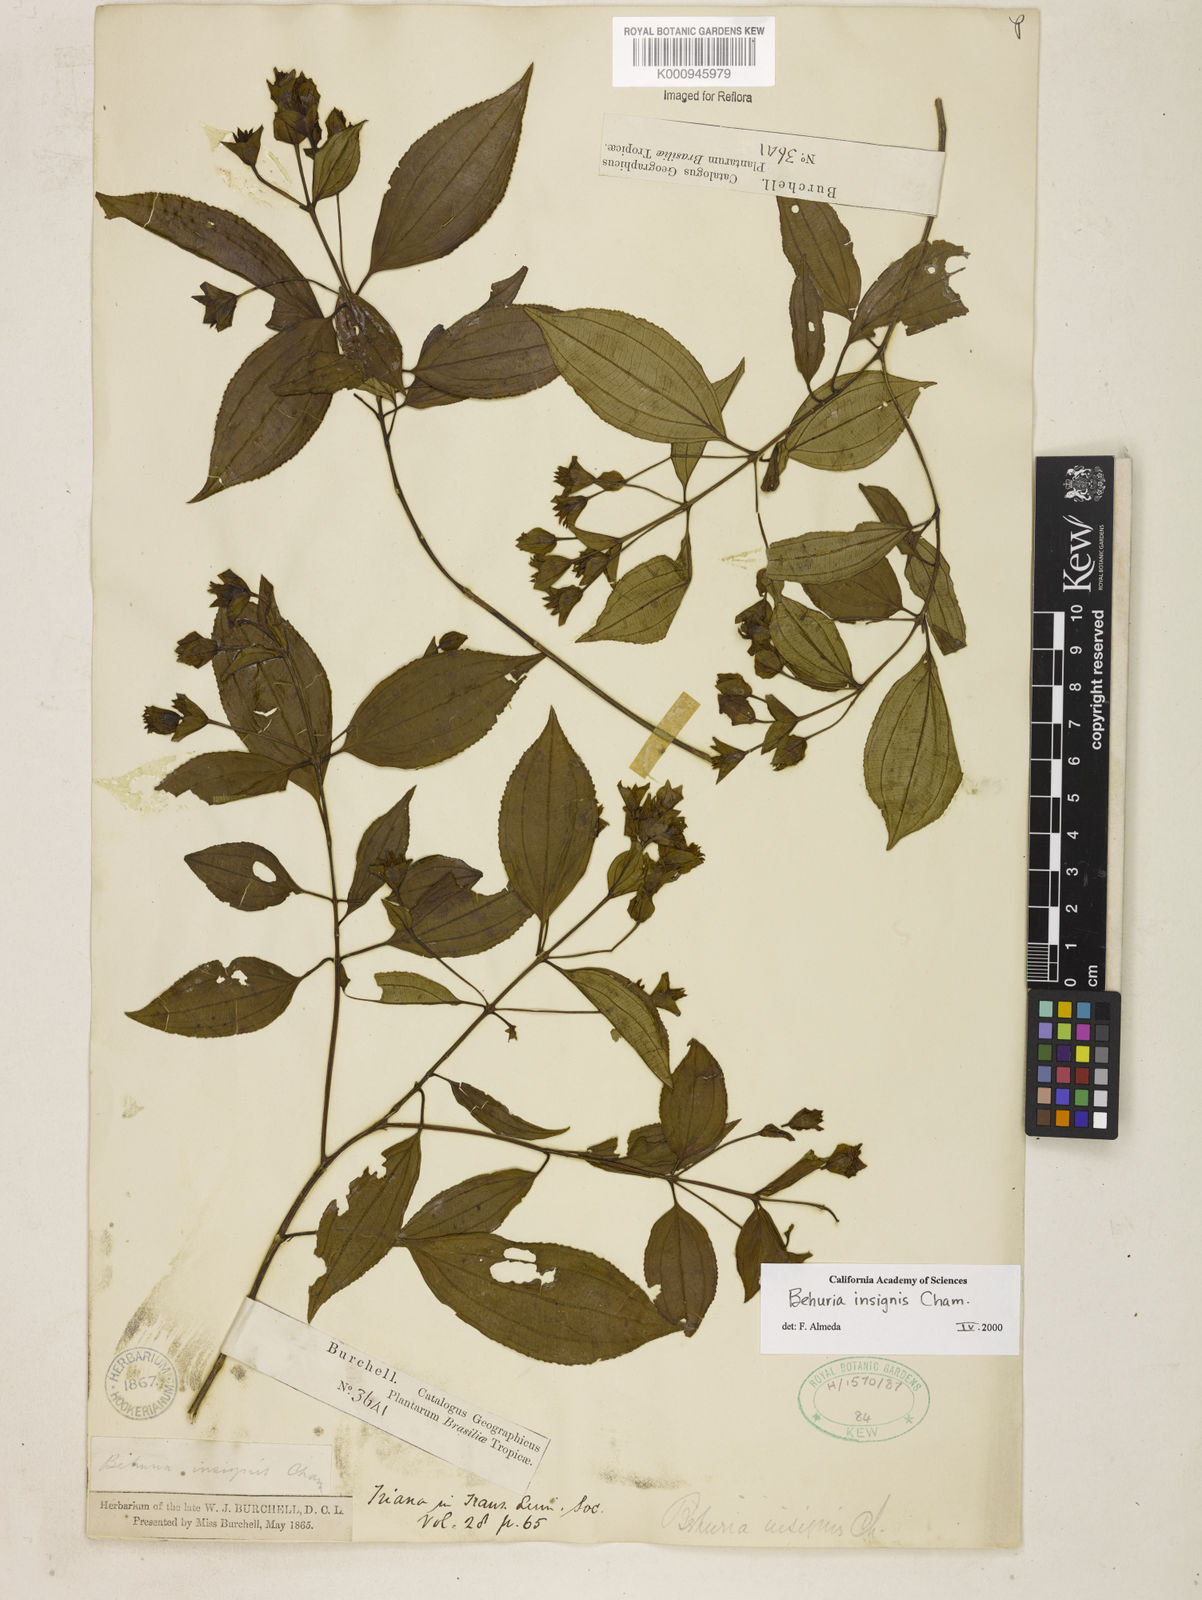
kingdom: Plantae
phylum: Tracheophyta
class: Magnoliopsida
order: Myrtales
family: Melastomataceae
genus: Huberia
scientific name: Huberia insignis
